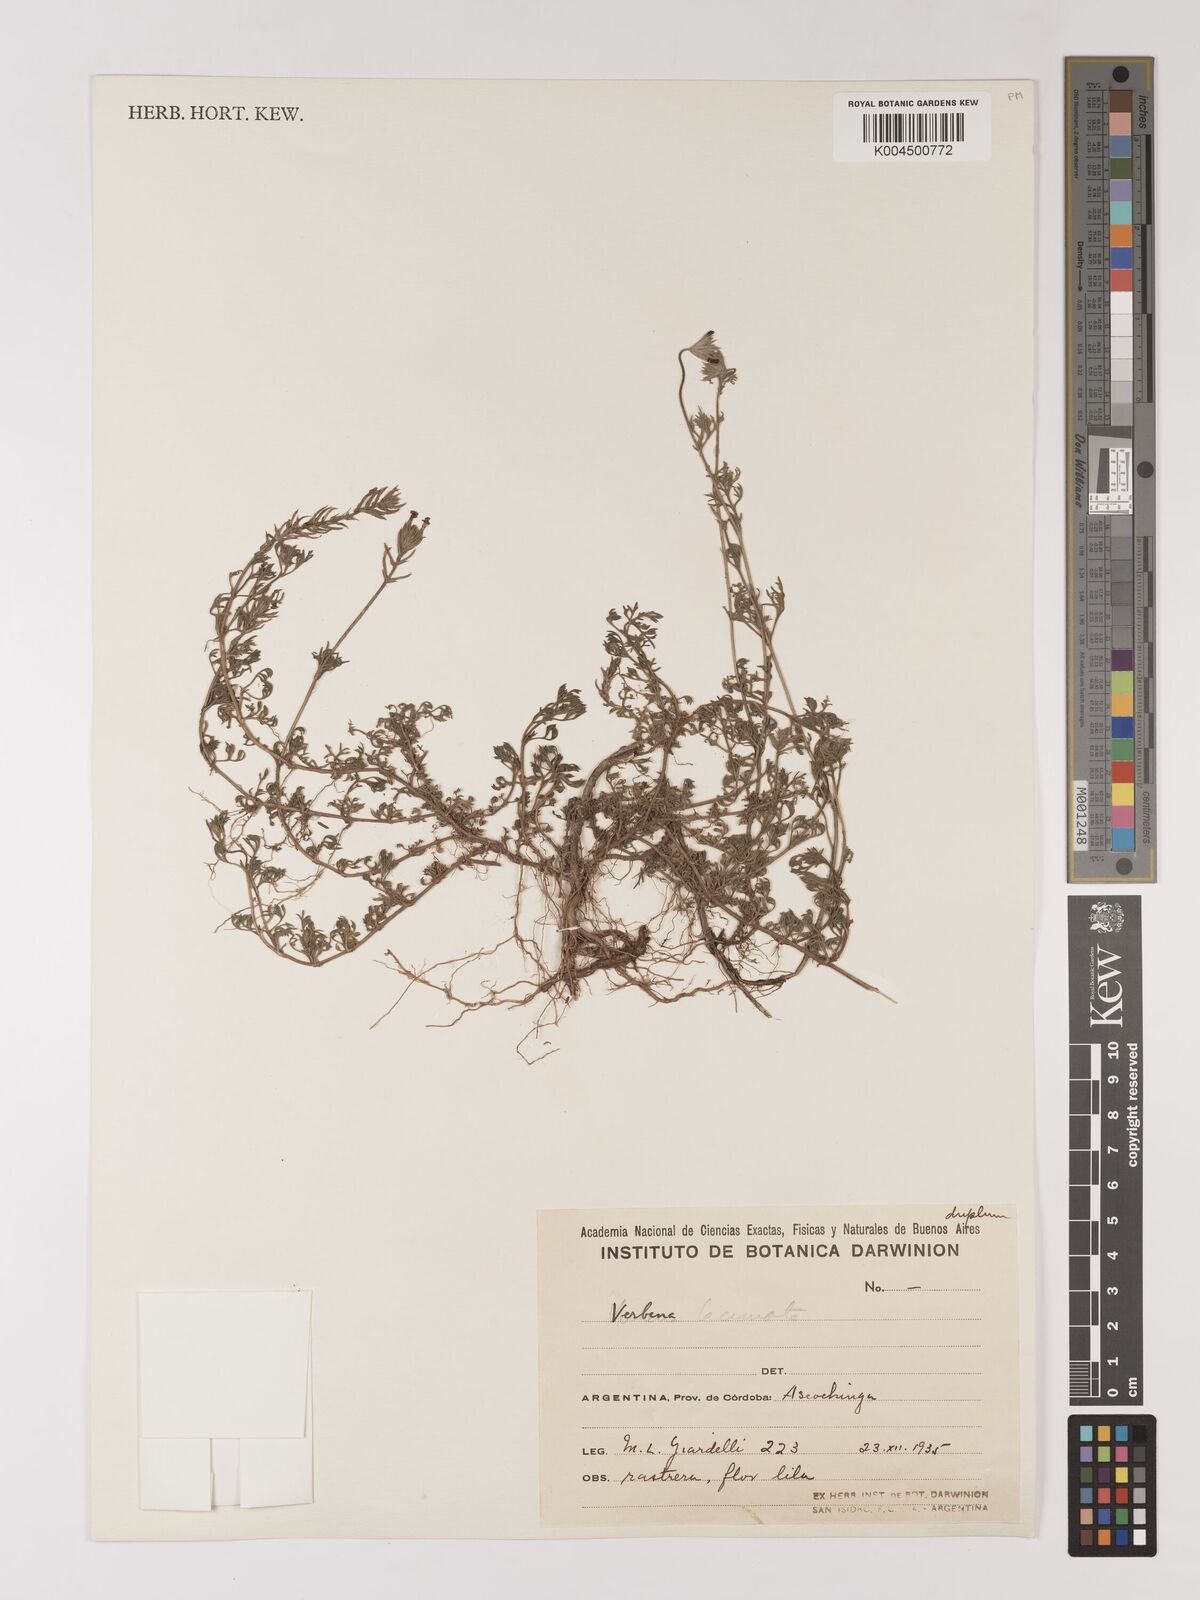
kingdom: Plantae
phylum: Tracheophyta
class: Magnoliopsida
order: Lamiales
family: Verbenaceae
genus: Verbena
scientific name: Verbena laciniata
